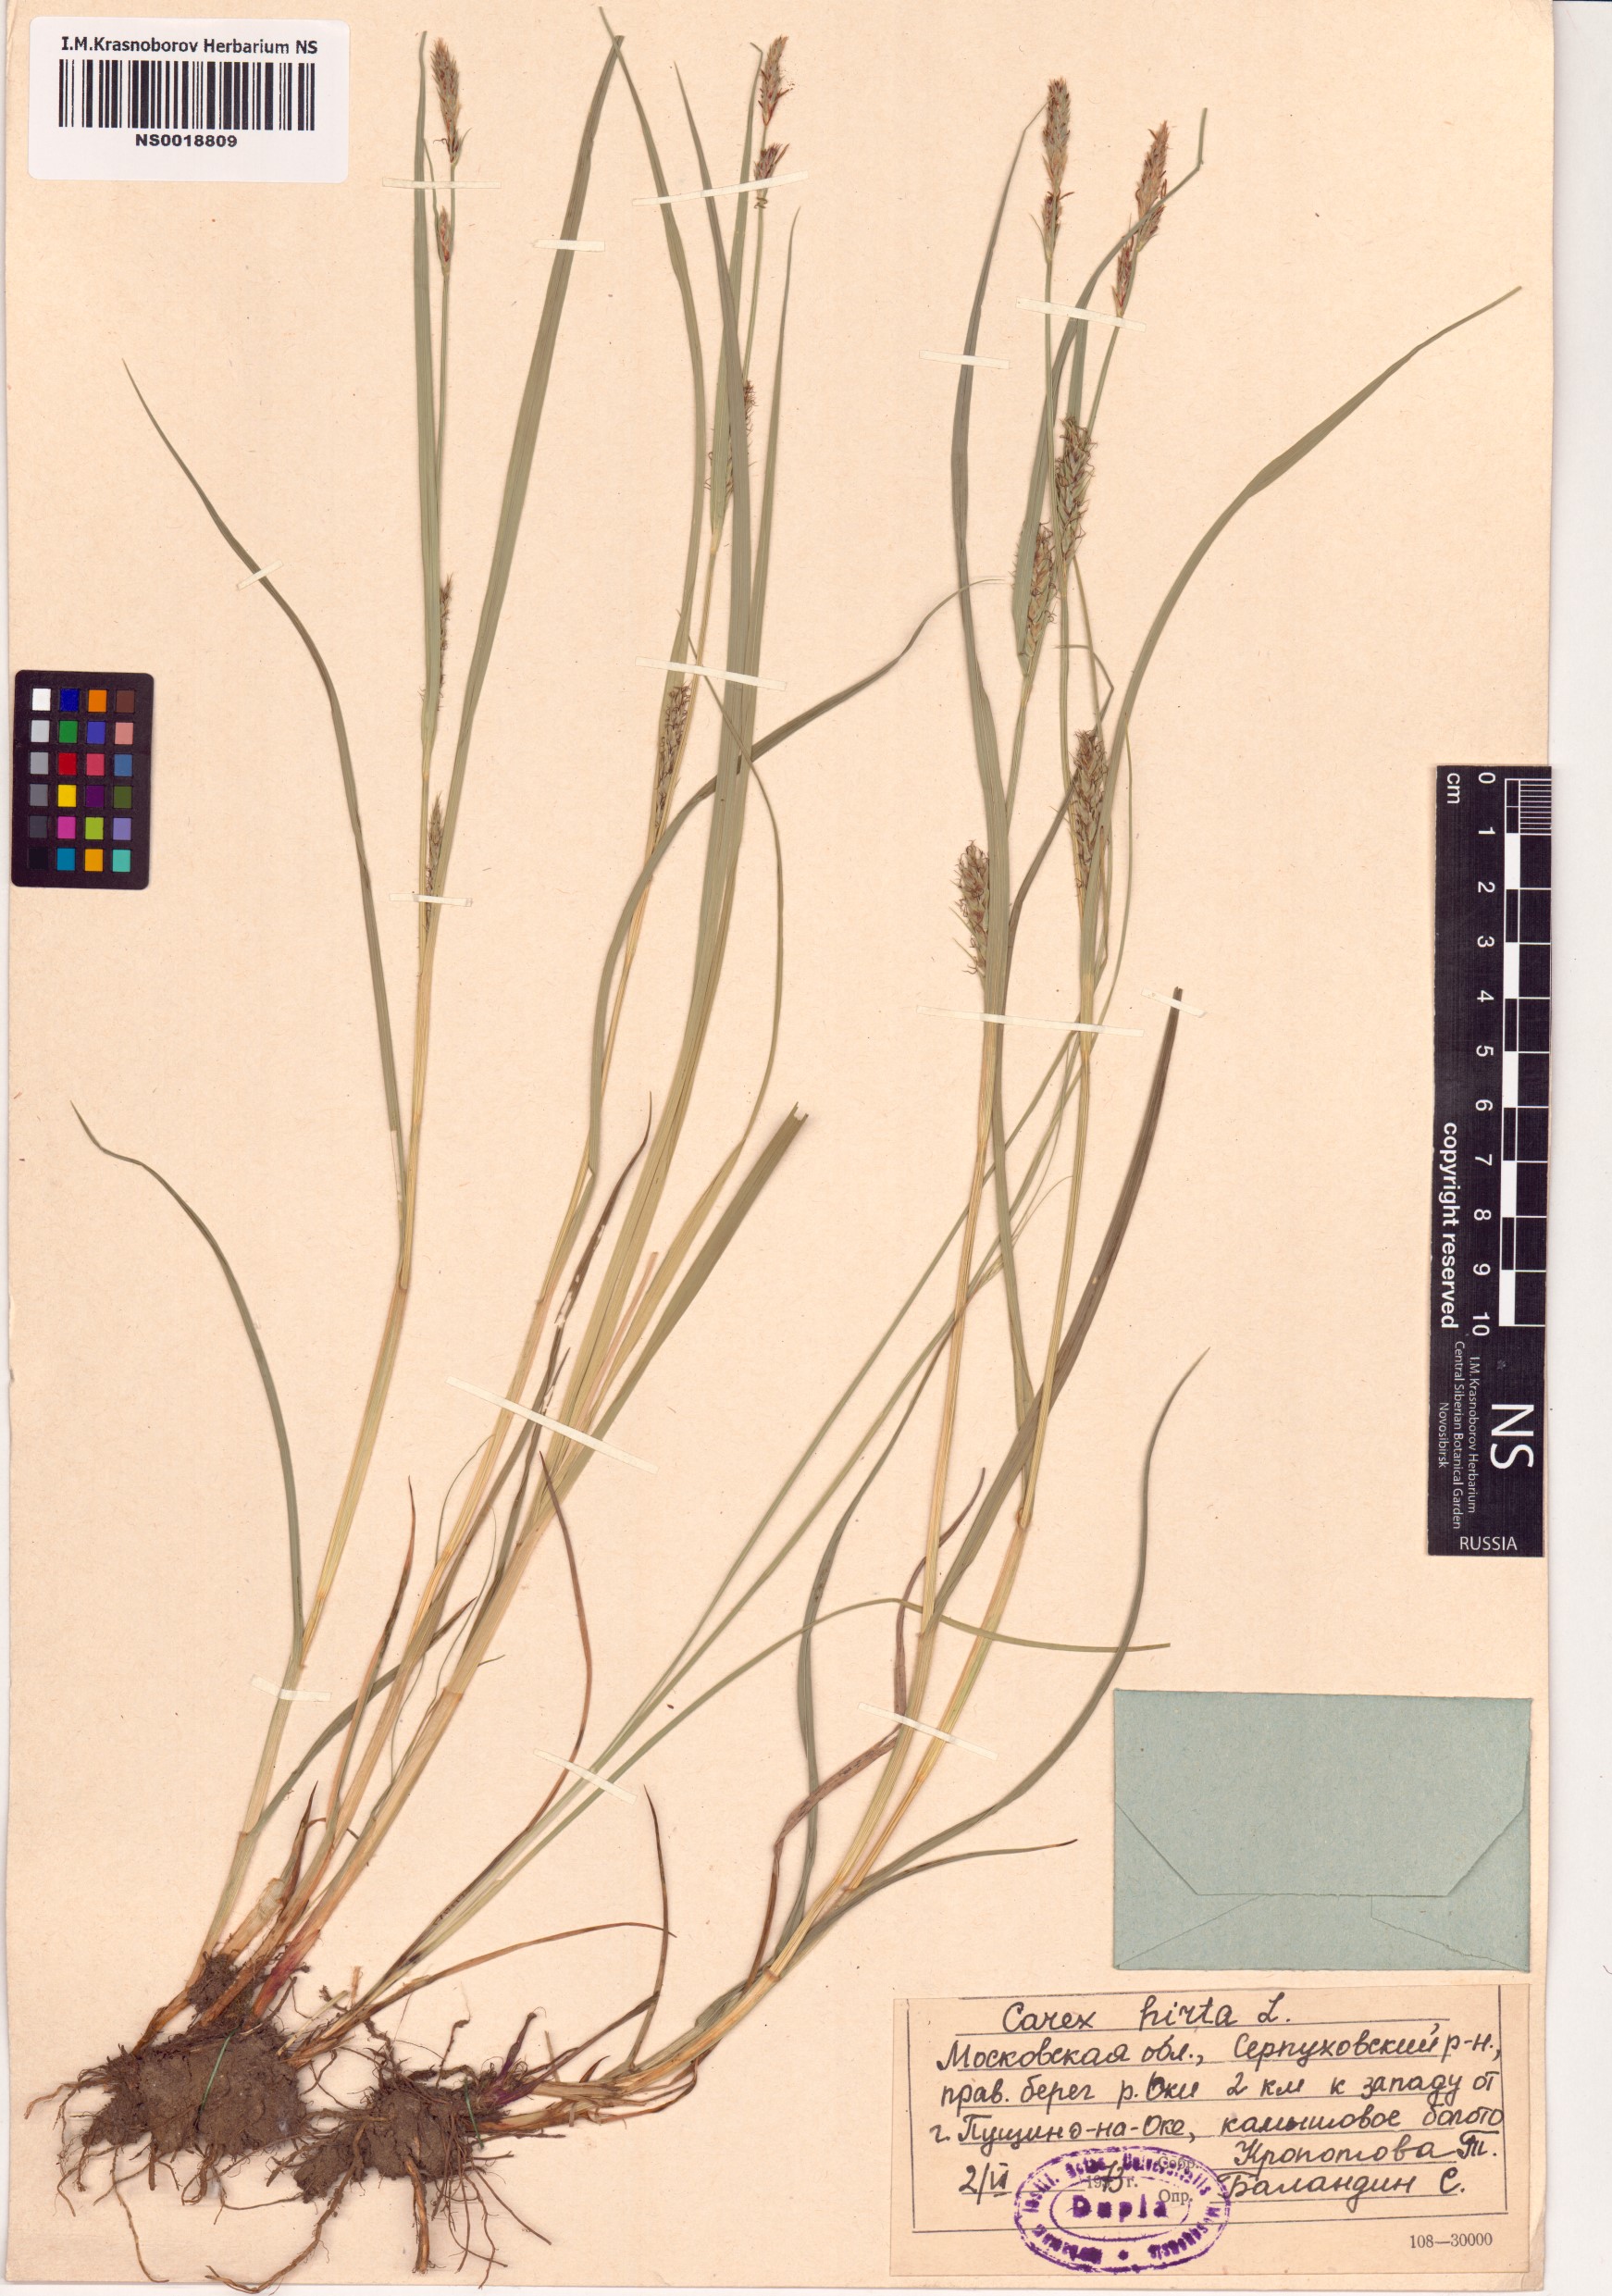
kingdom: Plantae
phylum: Tracheophyta
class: Liliopsida
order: Poales
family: Cyperaceae
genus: Carex
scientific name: Carex hirta
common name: Hairy sedge
